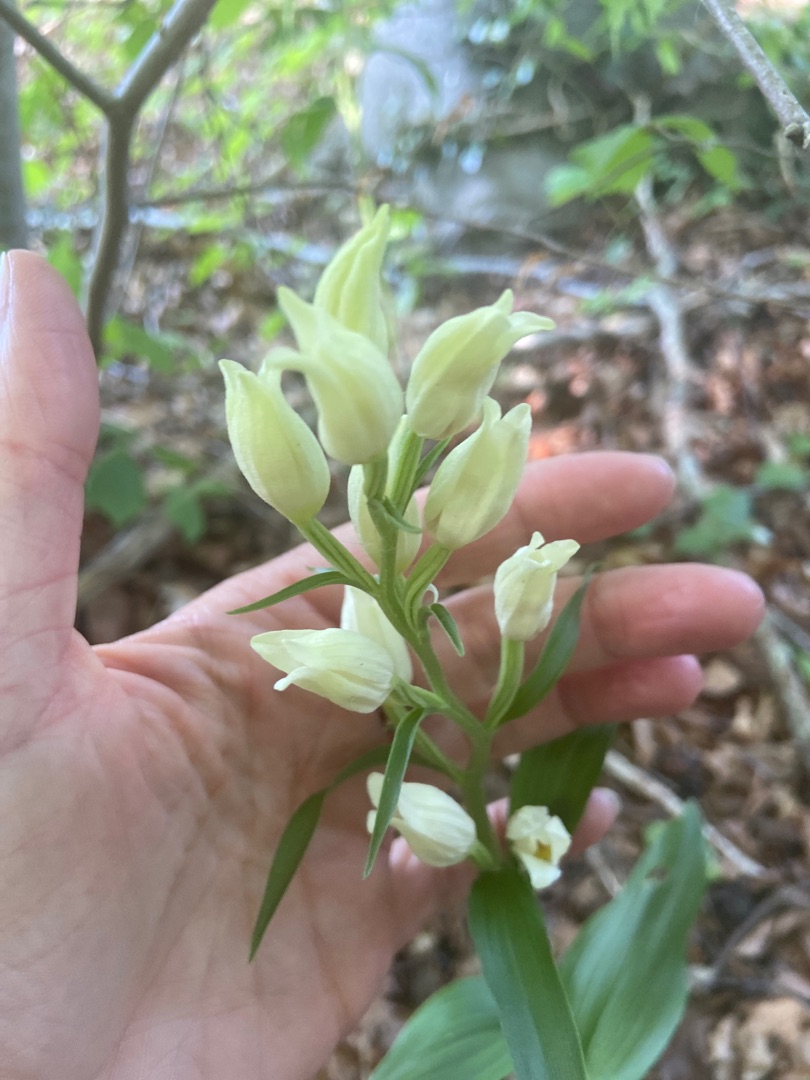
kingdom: Plantae
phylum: Tracheophyta
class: Liliopsida
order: Asparagales
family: Orchidaceae
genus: Cephalanthera
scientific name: Cephalanthera damasonium
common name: Hvidgul skovlilje
